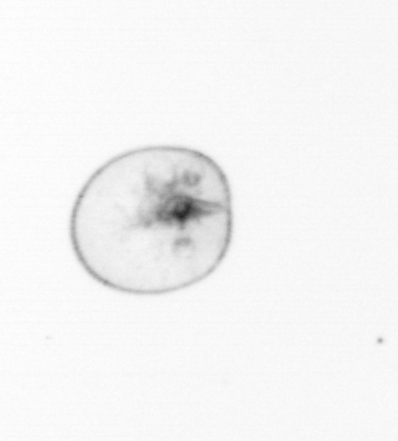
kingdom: Chromista
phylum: Myzozoa
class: Dinophyceae
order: Noctilucales
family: Noctilucaceae
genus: Noctiluca
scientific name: Noctiluca scintillans
